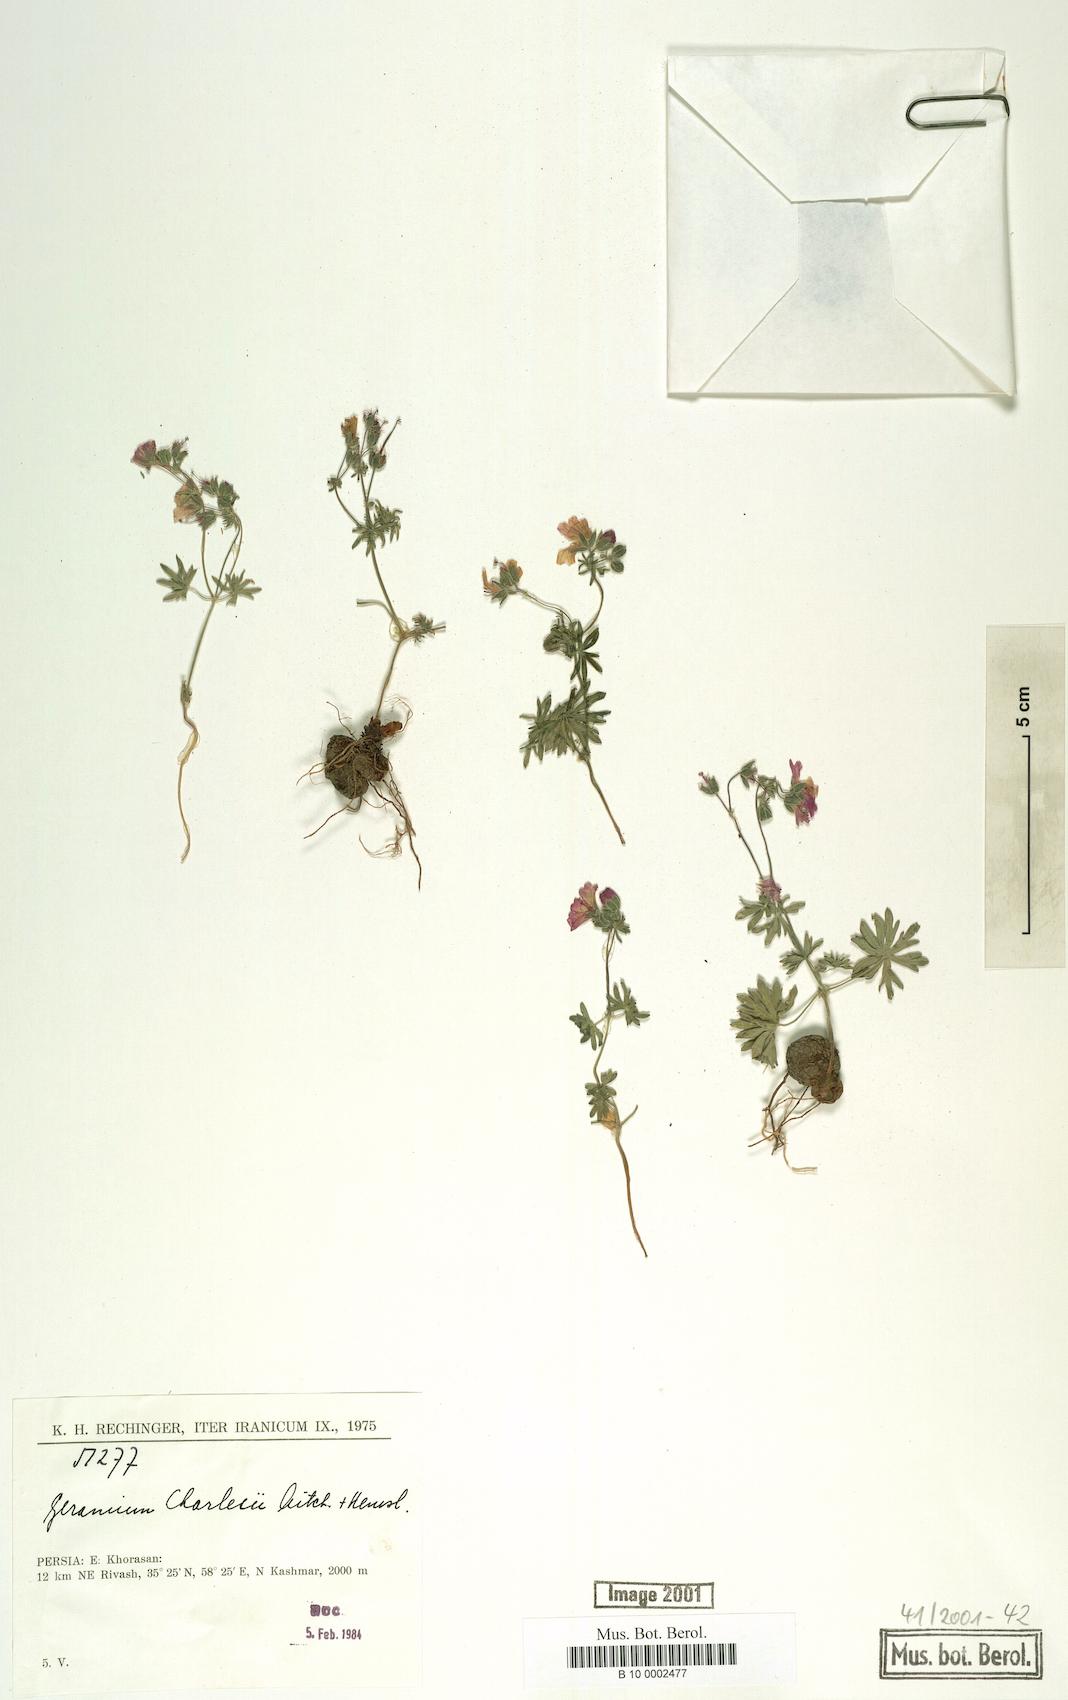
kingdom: Plantae
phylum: Tracheophyta
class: Magnoliopsida
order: Geraniales
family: Geraniaceae
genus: Geranium
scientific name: Geranium kotschyi
